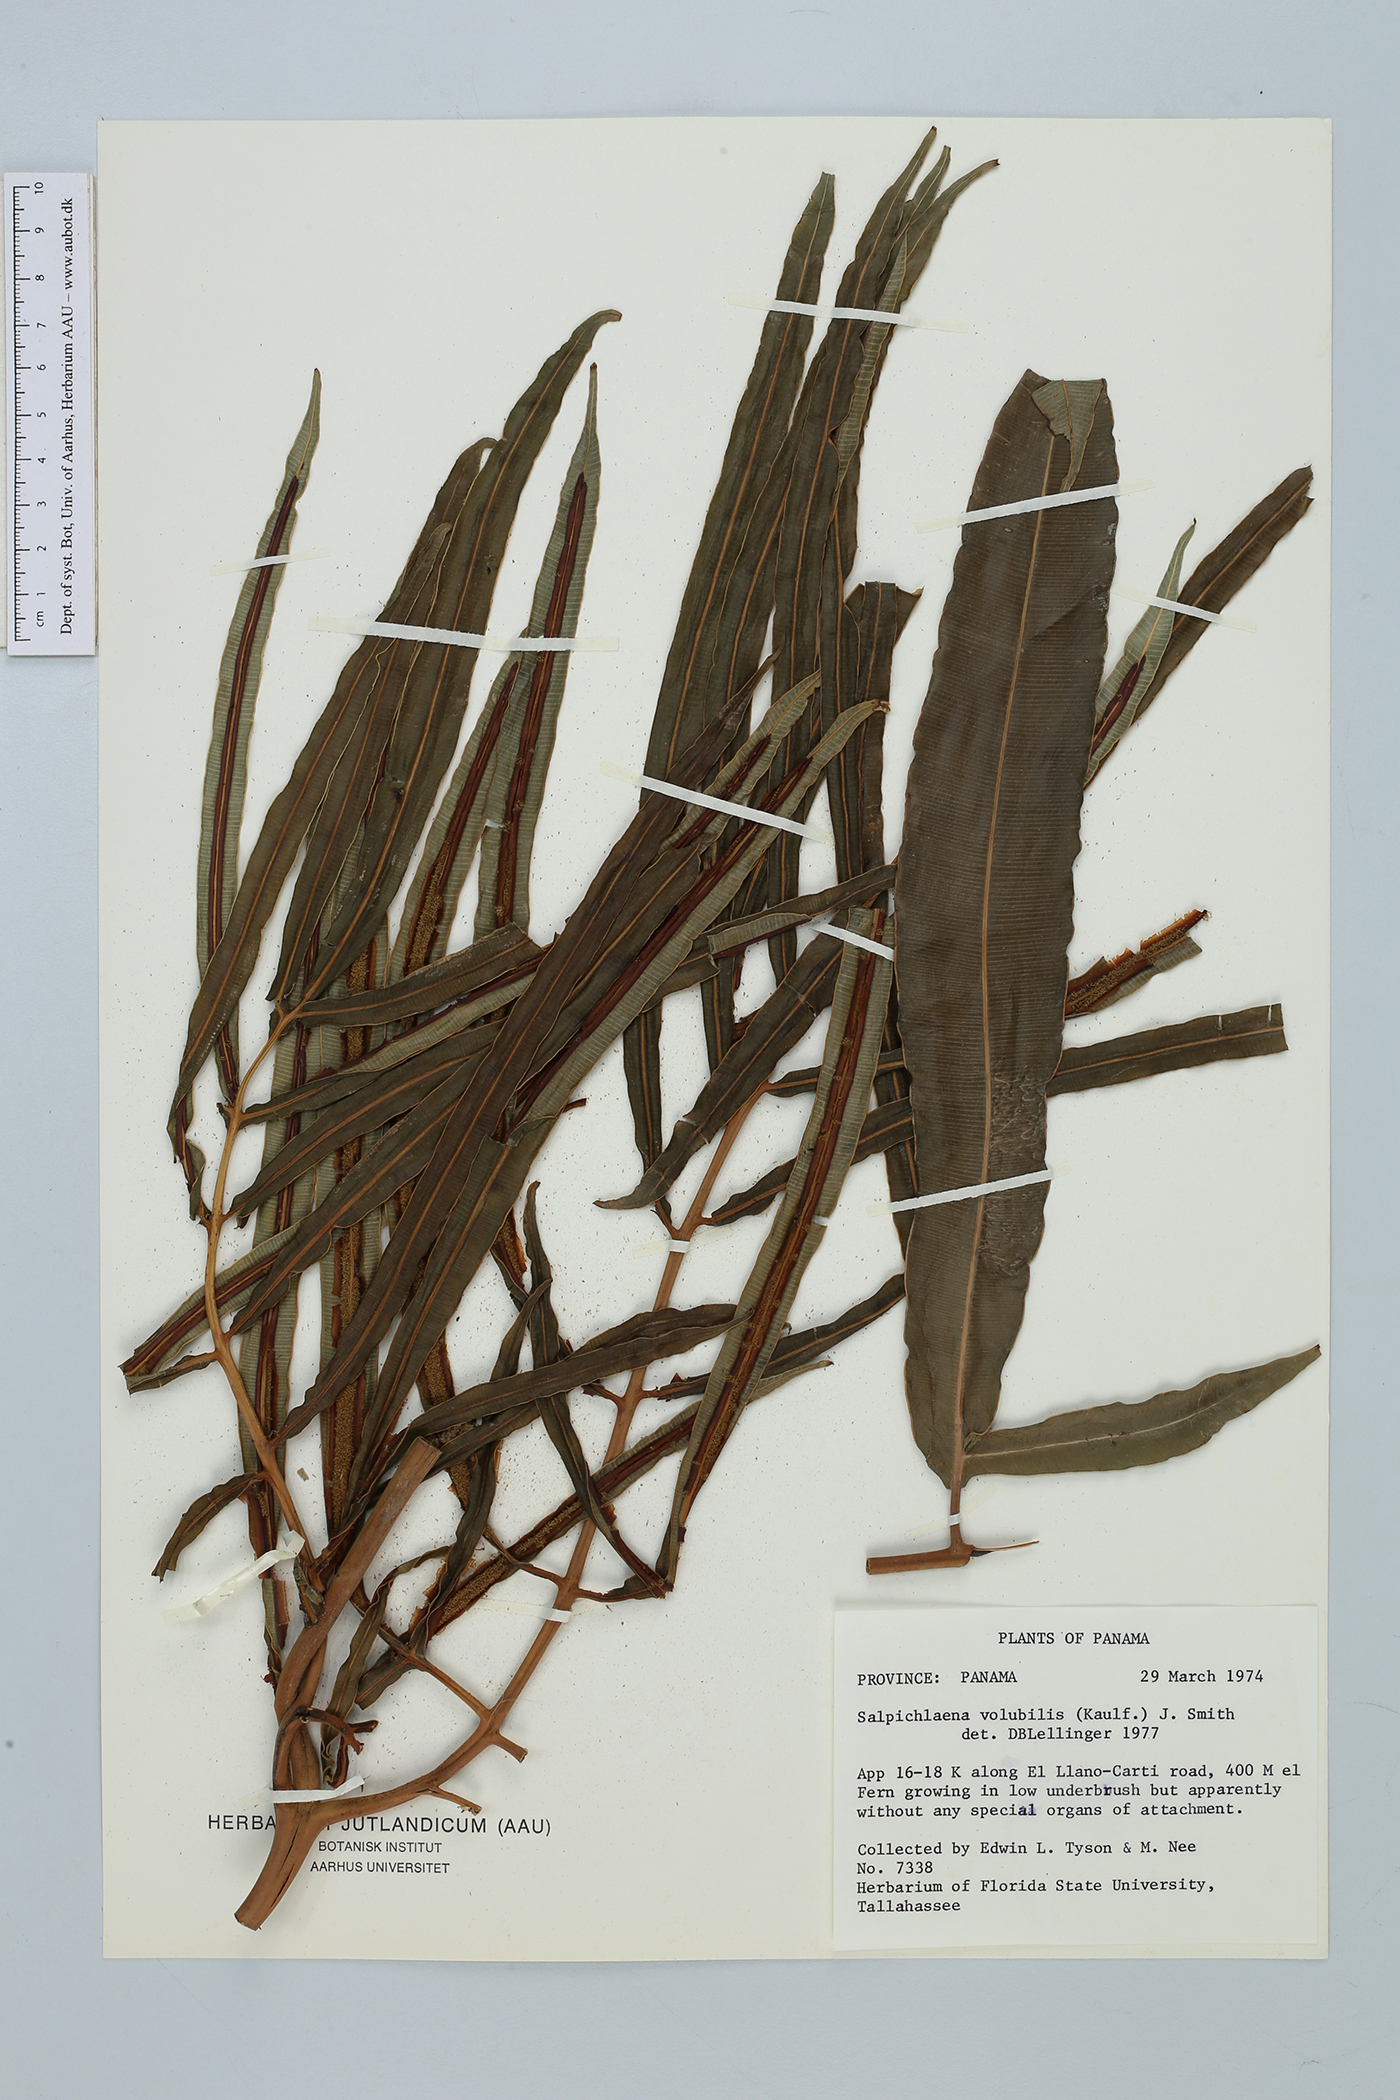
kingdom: Plantae
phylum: Tracheophyta
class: Polypodiopsida
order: Polypodiales
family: Blechnaceae
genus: Salpichlaena
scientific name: Salpichlaena volubilis
